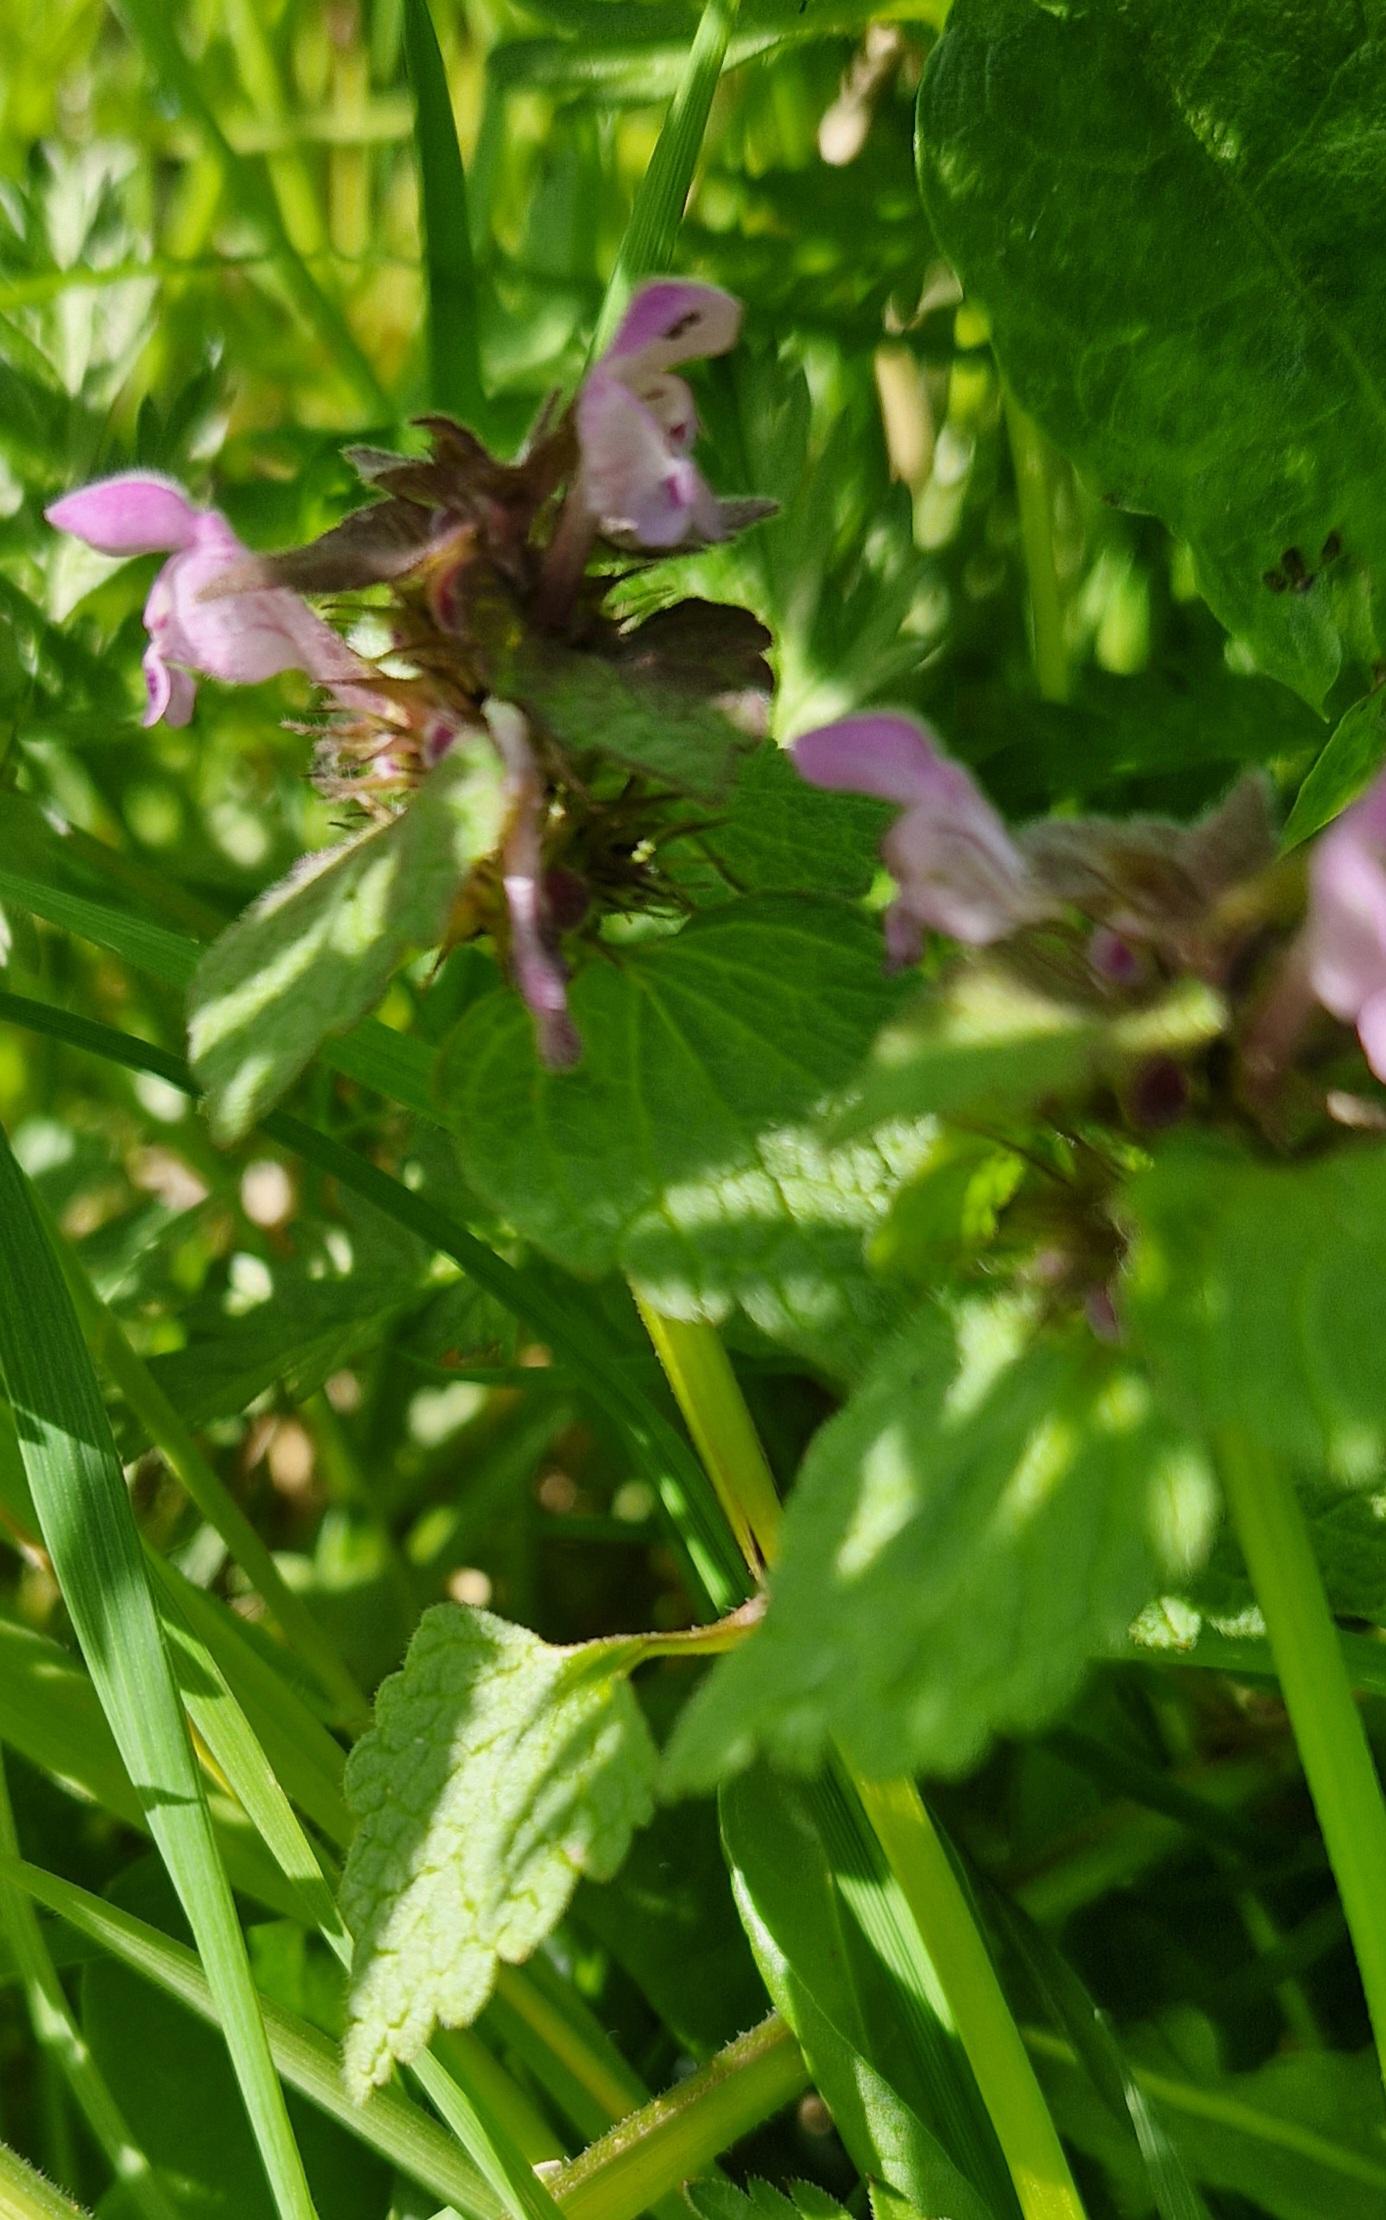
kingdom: Plantae
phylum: Tracheophyta
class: Magnoliopsida
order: Lamiales
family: Lamiaceae
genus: Lamium
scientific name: Lamium purpureum
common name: Rød tvetand
